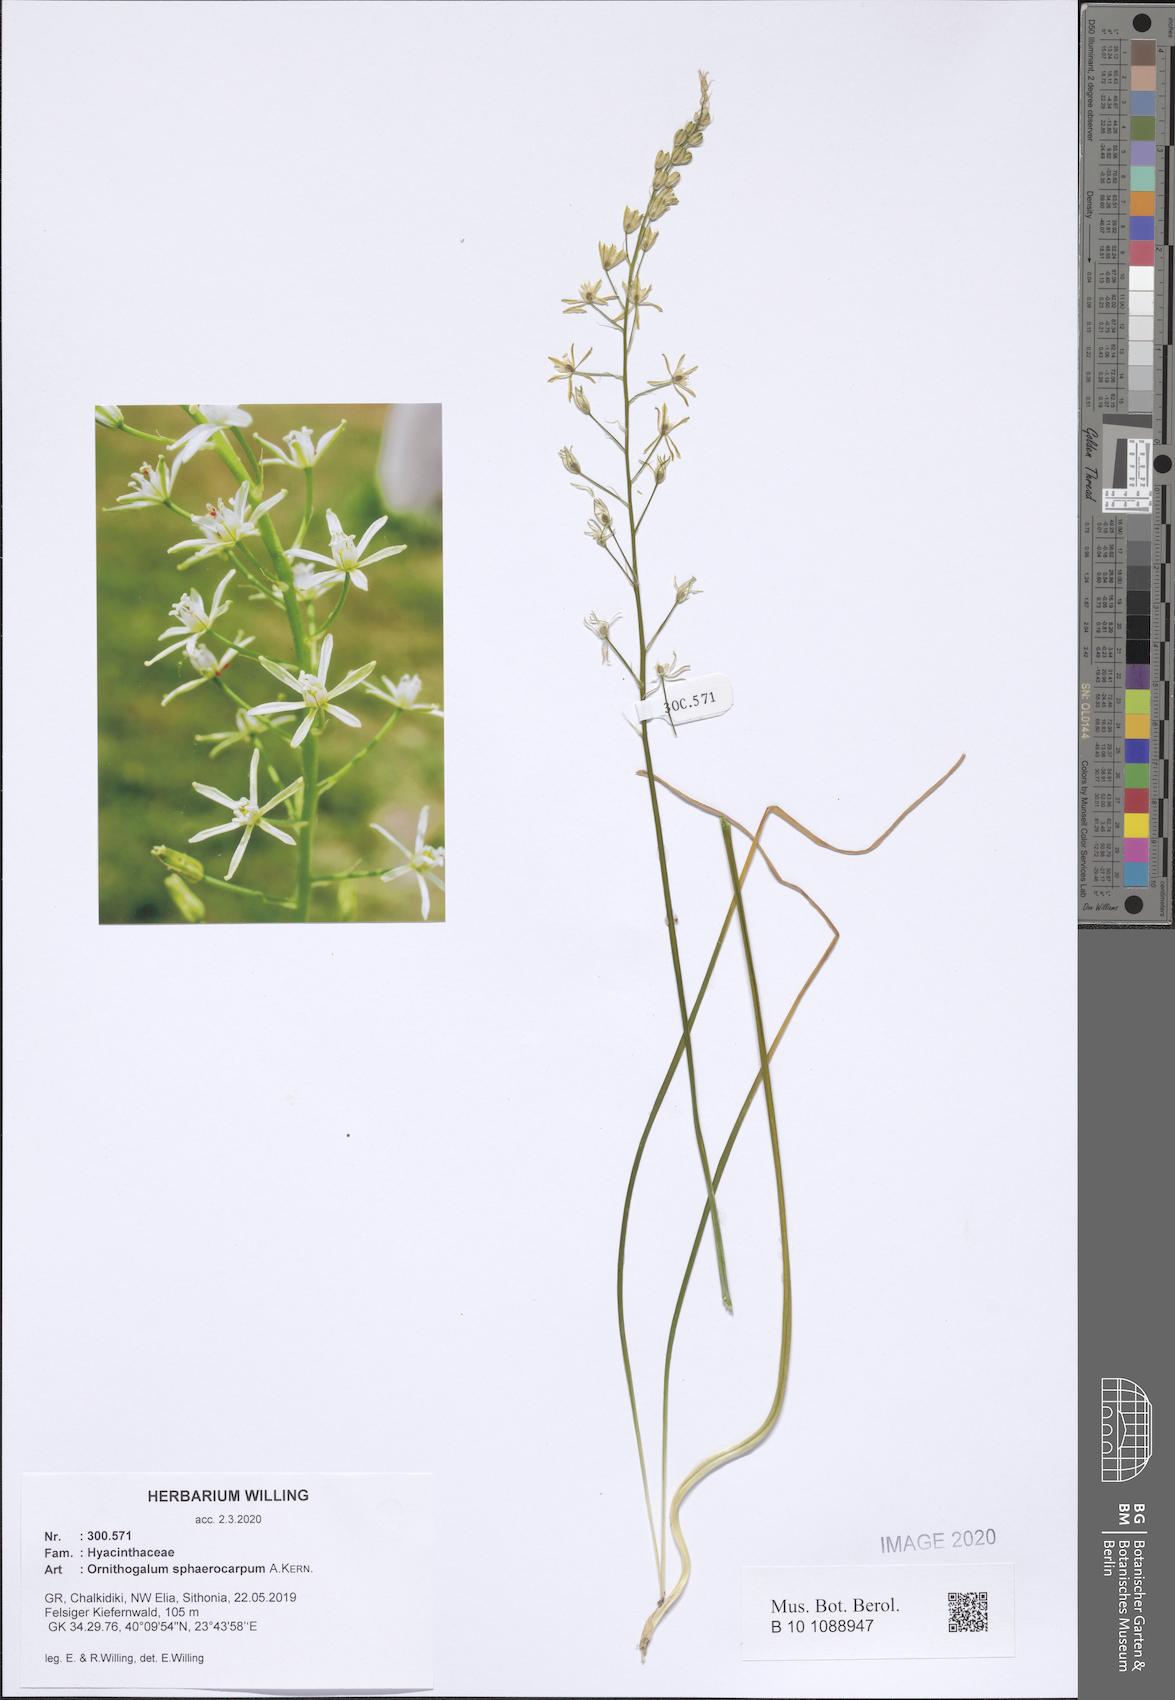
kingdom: Plantae
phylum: Tracheophyta
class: Liliopsida
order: Asparagales
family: Asparagaceae
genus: Ornithogalum
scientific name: Ornithogalum sphaerocarpum
